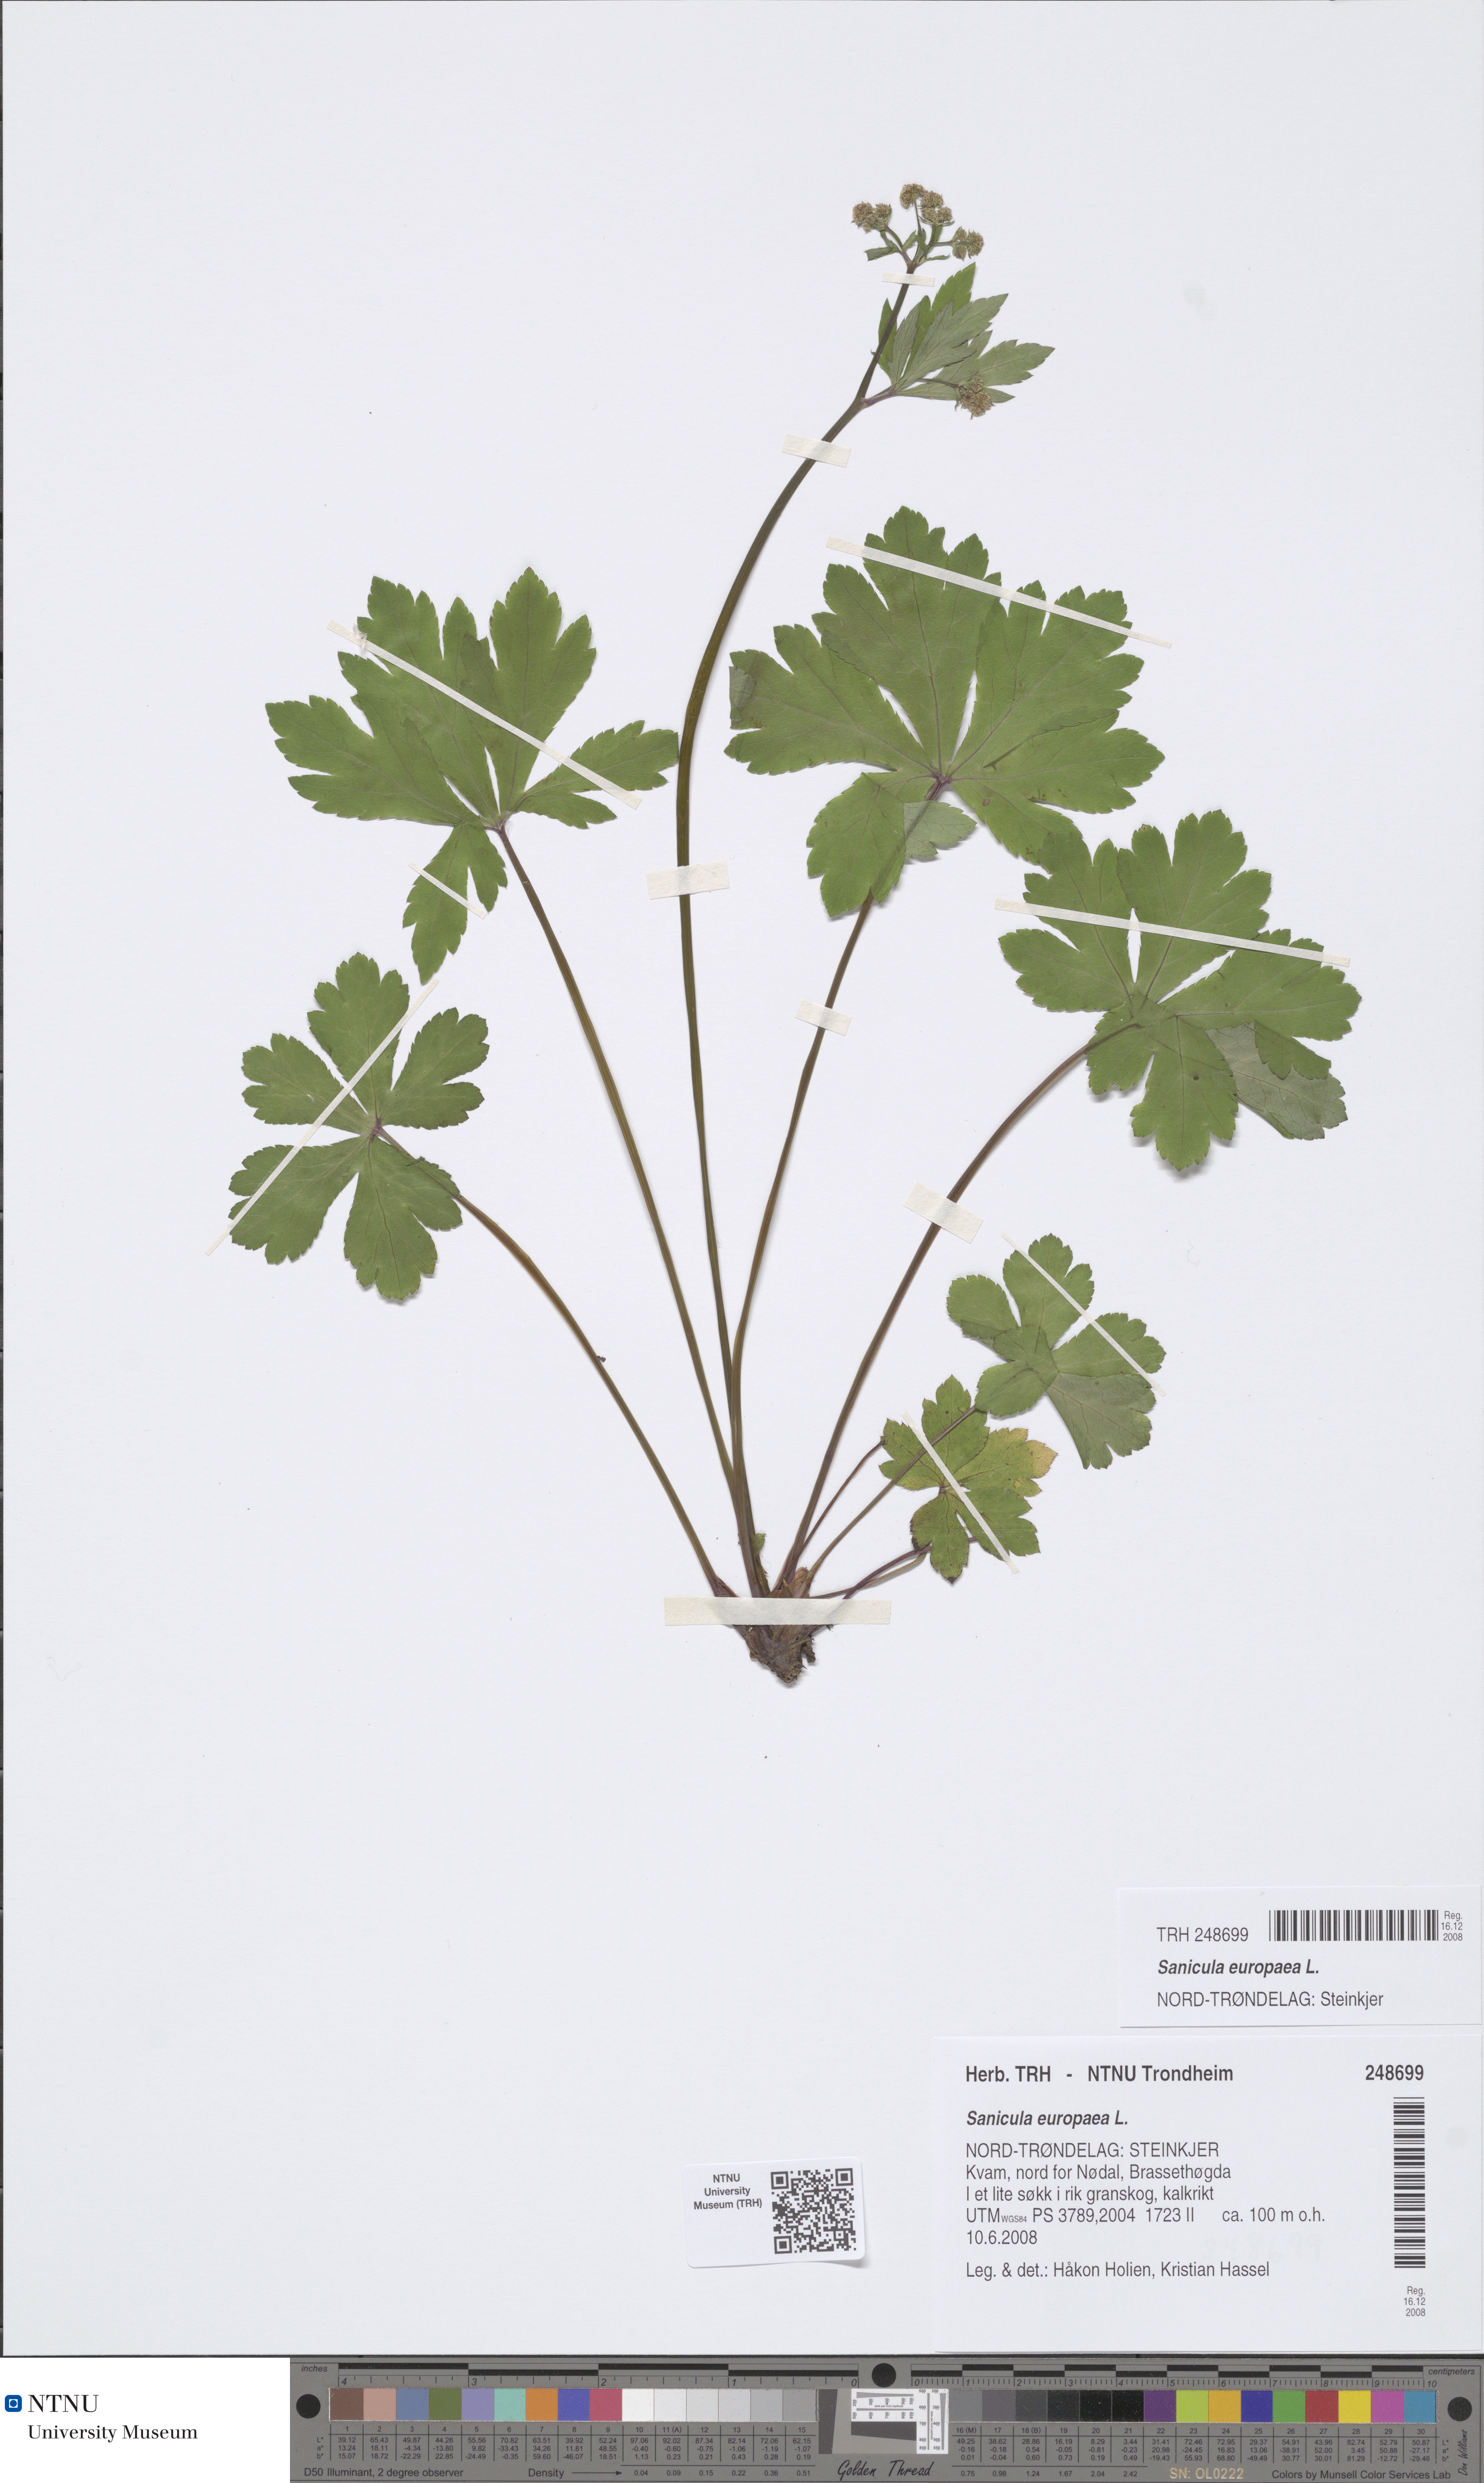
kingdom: Plantae
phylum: Tracheophyta
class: Magnoliopsida
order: Apiales
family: Apiaceae
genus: Sanicula
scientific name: Sanicula europaea
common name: Sanicle
